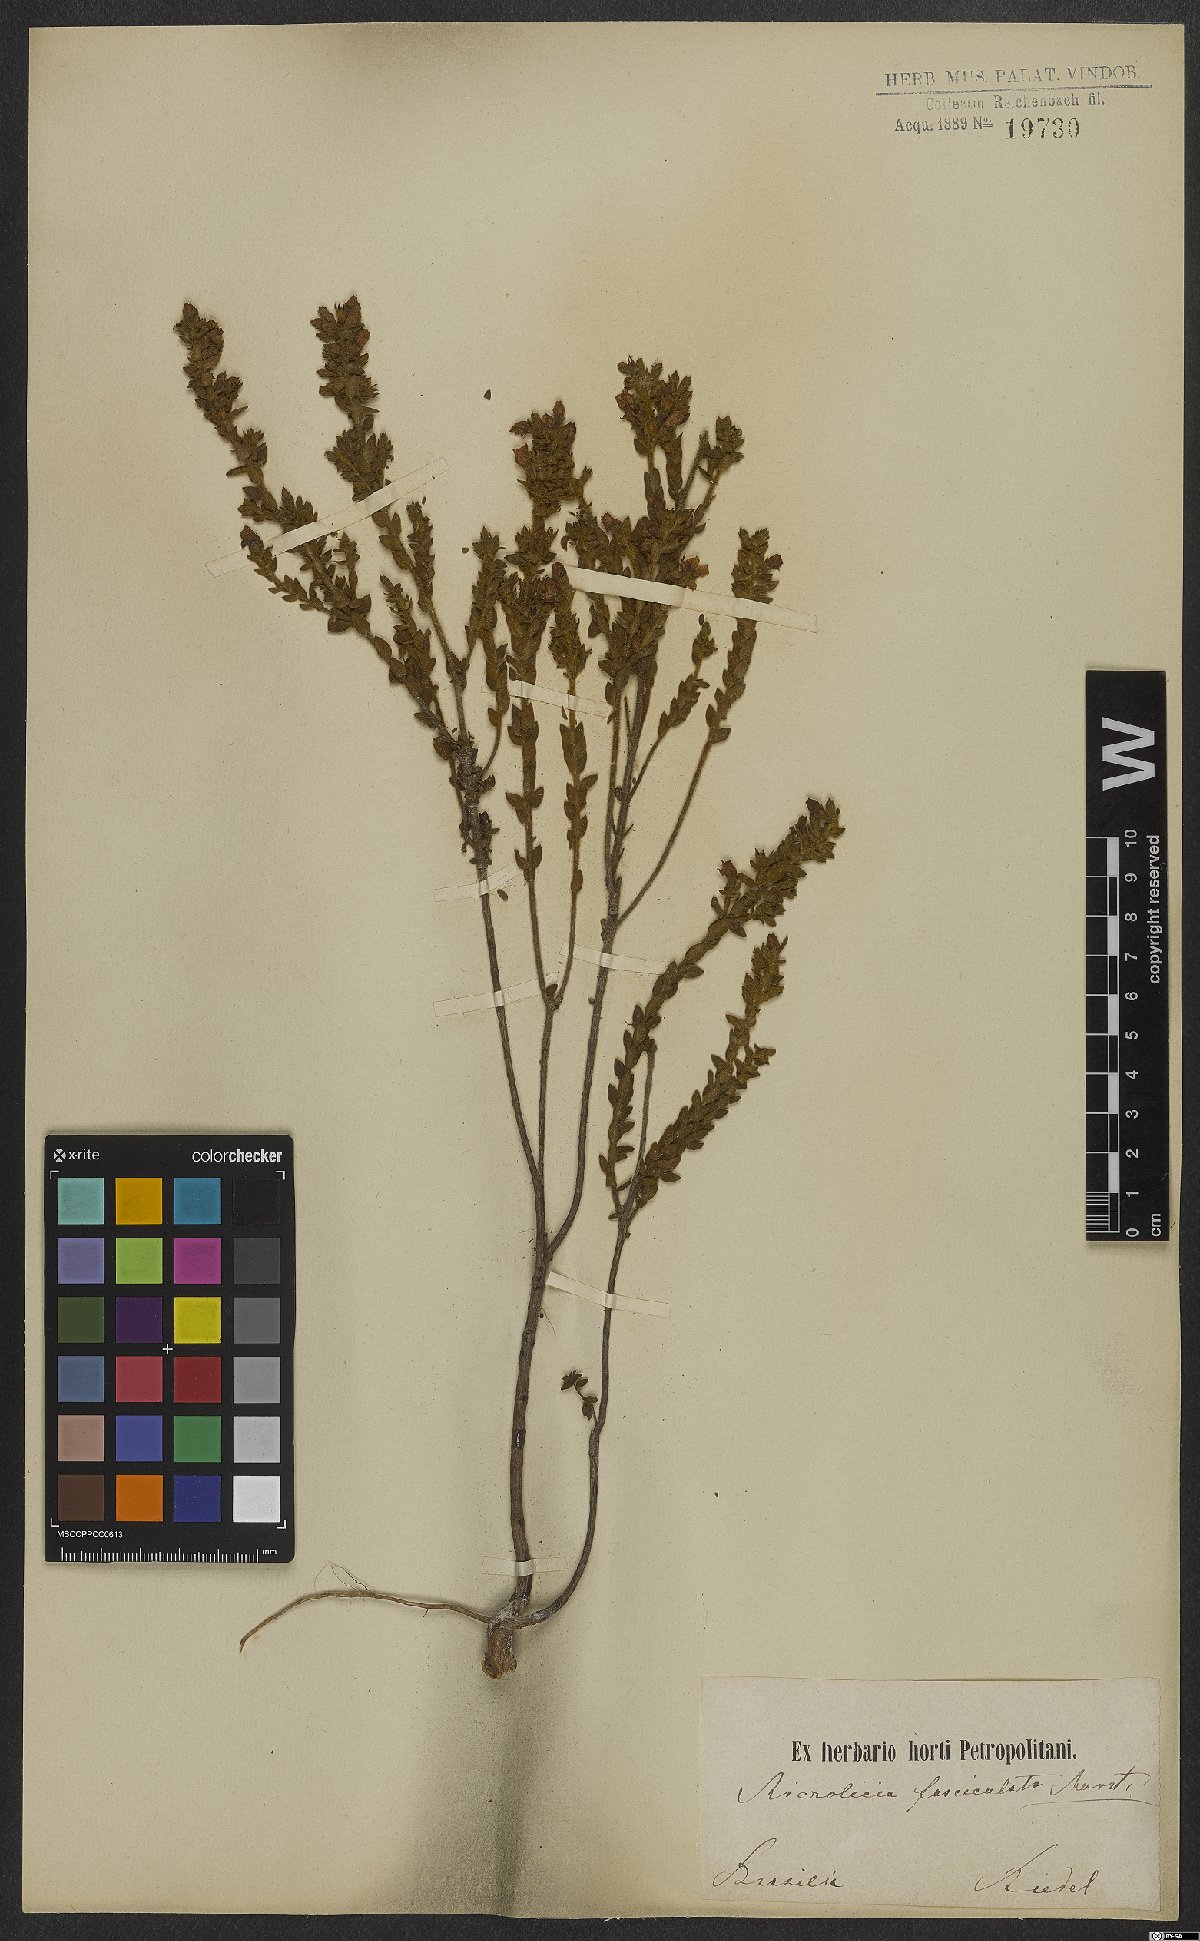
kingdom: Plantae
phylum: Tracheophyta
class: Magnoliopsida
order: Myrtales
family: Melastomataceae
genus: Microlicia
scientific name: Microlicia fasciculata
